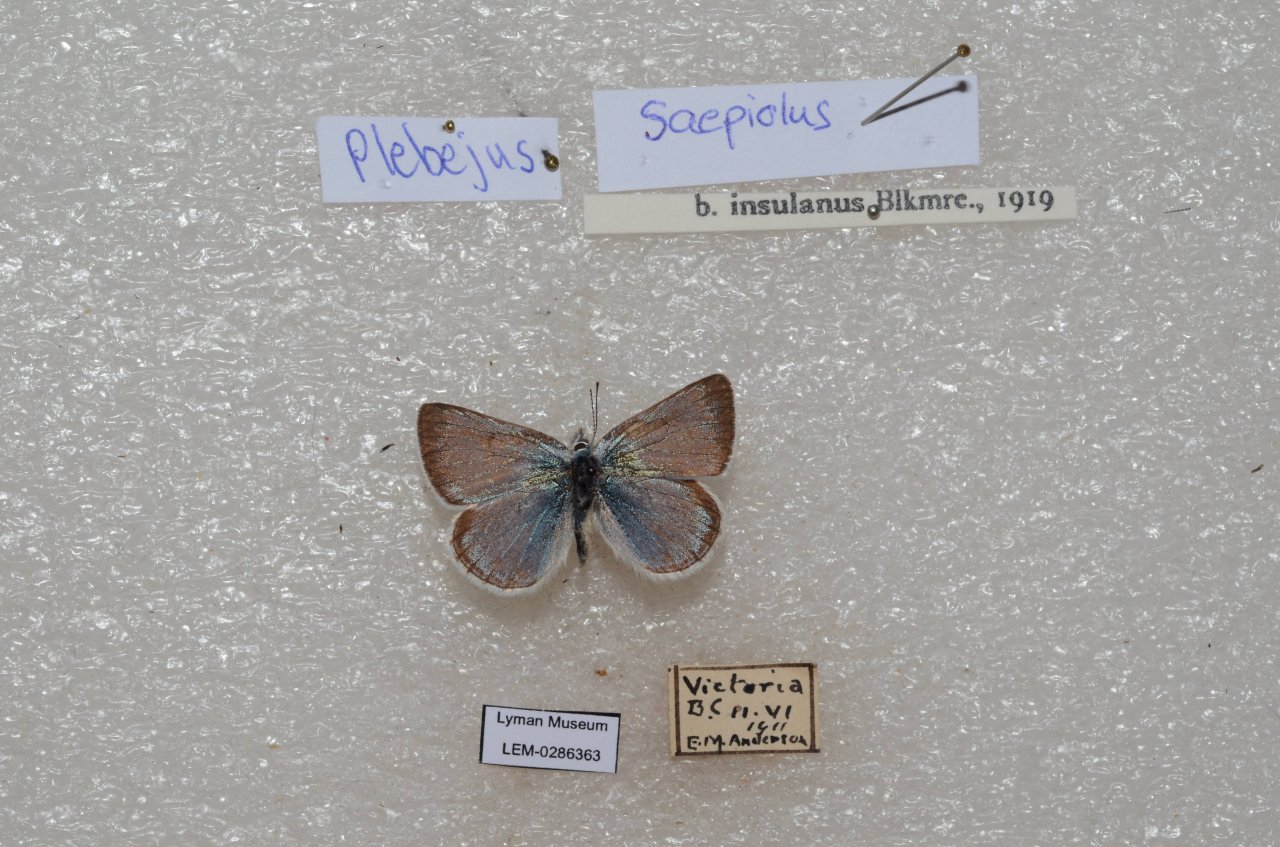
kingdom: Animalia
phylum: Arthropoda
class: Insecta
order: Lepidoptera
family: Lycaenidae
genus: Plebejus
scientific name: Plebejus saepiolus
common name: Greenish Blue
